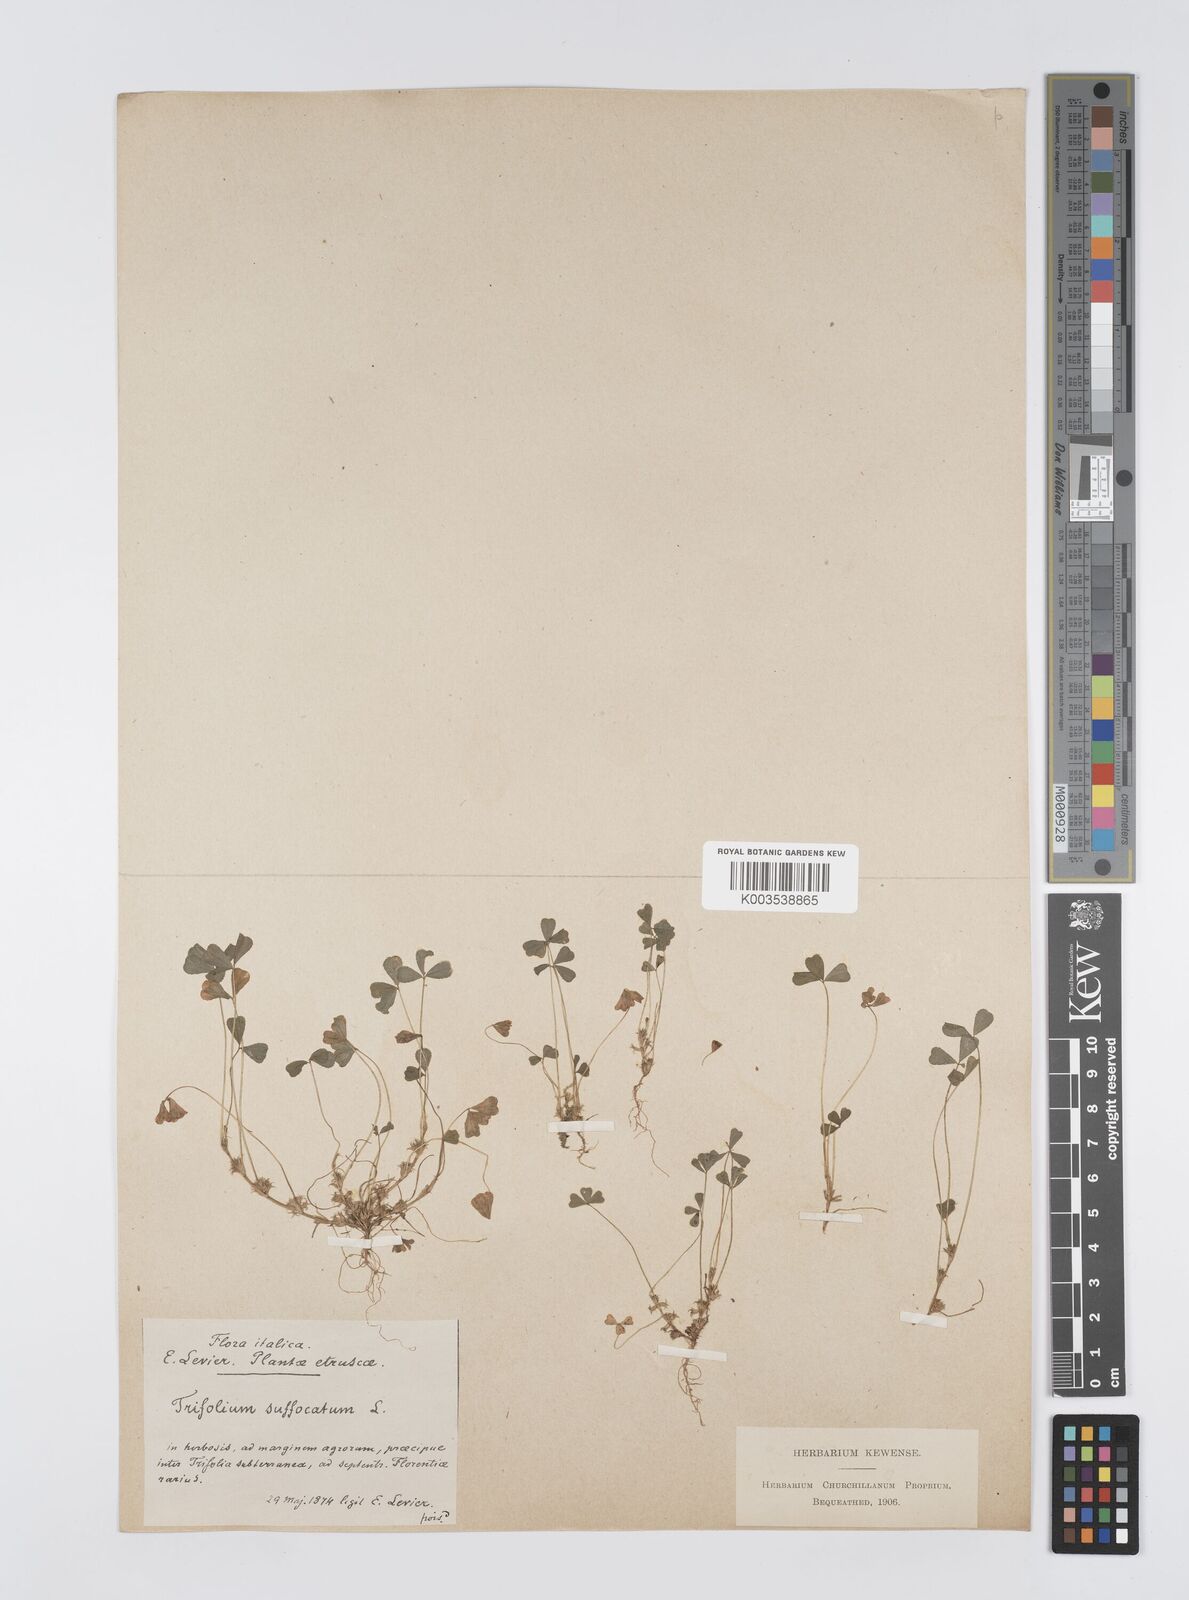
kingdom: Plantae
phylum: Tracheophyta
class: Magnoliopsida
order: Fabales
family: Fabaceae
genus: Trifolium
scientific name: Trifolium suffocatum
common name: Suffocated clover
